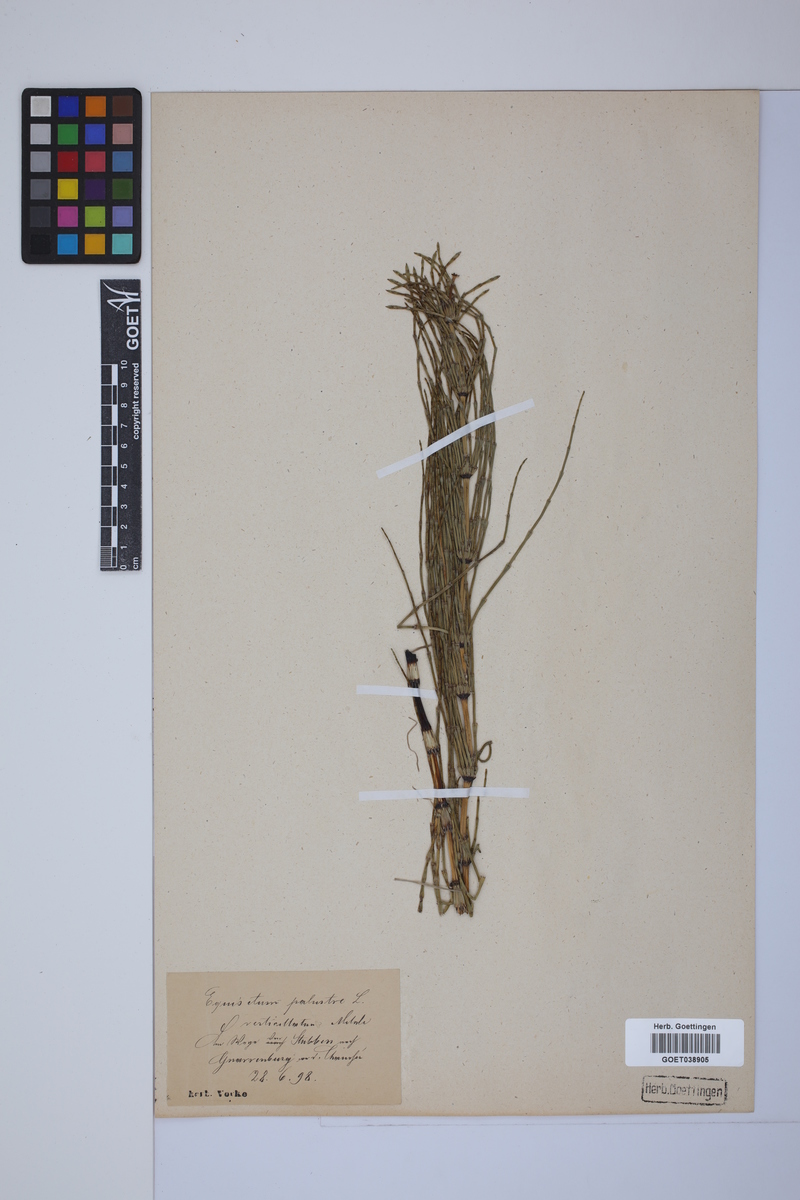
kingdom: Plantae
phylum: Tracheophyta
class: Polypodiopsida
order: Equisetales
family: Equisetaceae
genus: Equisetum
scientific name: Equisetum palustre
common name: Marsh horsetail
